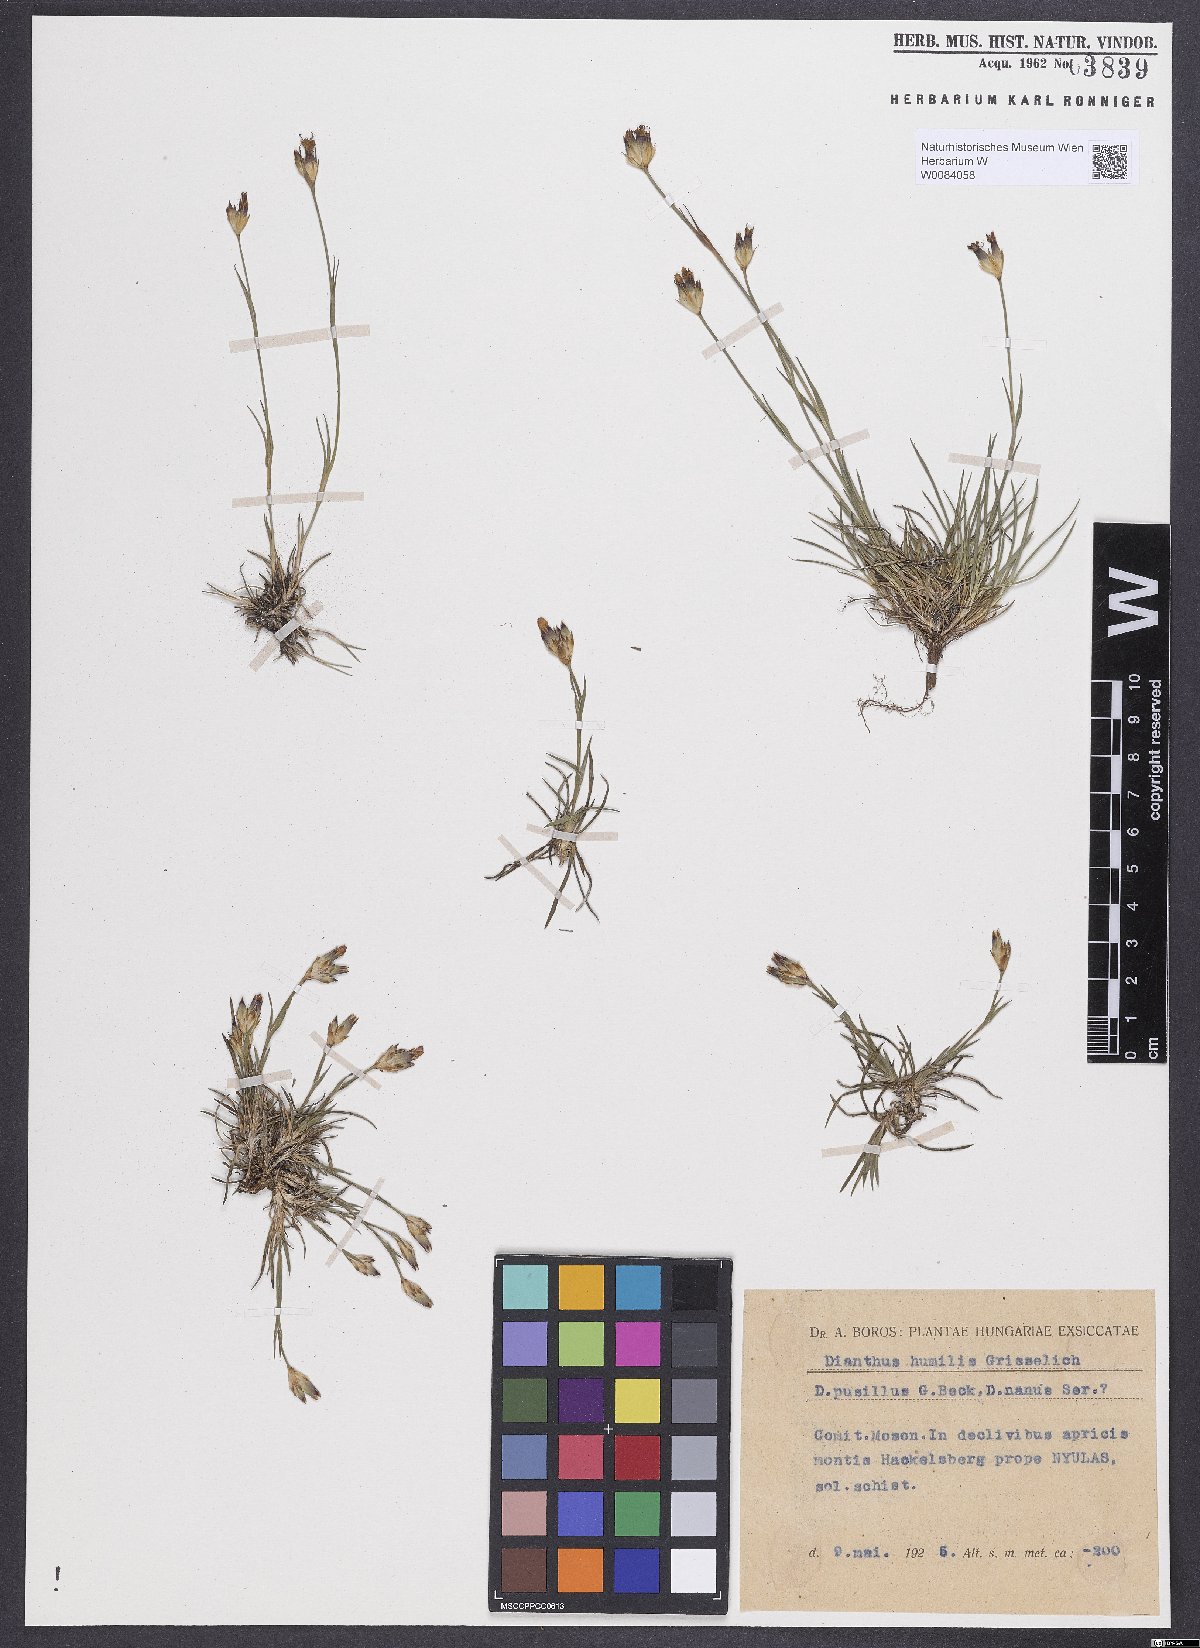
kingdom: Plantae
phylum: Tracheophyta
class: Magnoliopsida
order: Caryophyllales
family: Caryophyllaceae
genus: Dianthus
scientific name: Dianthus humilis
